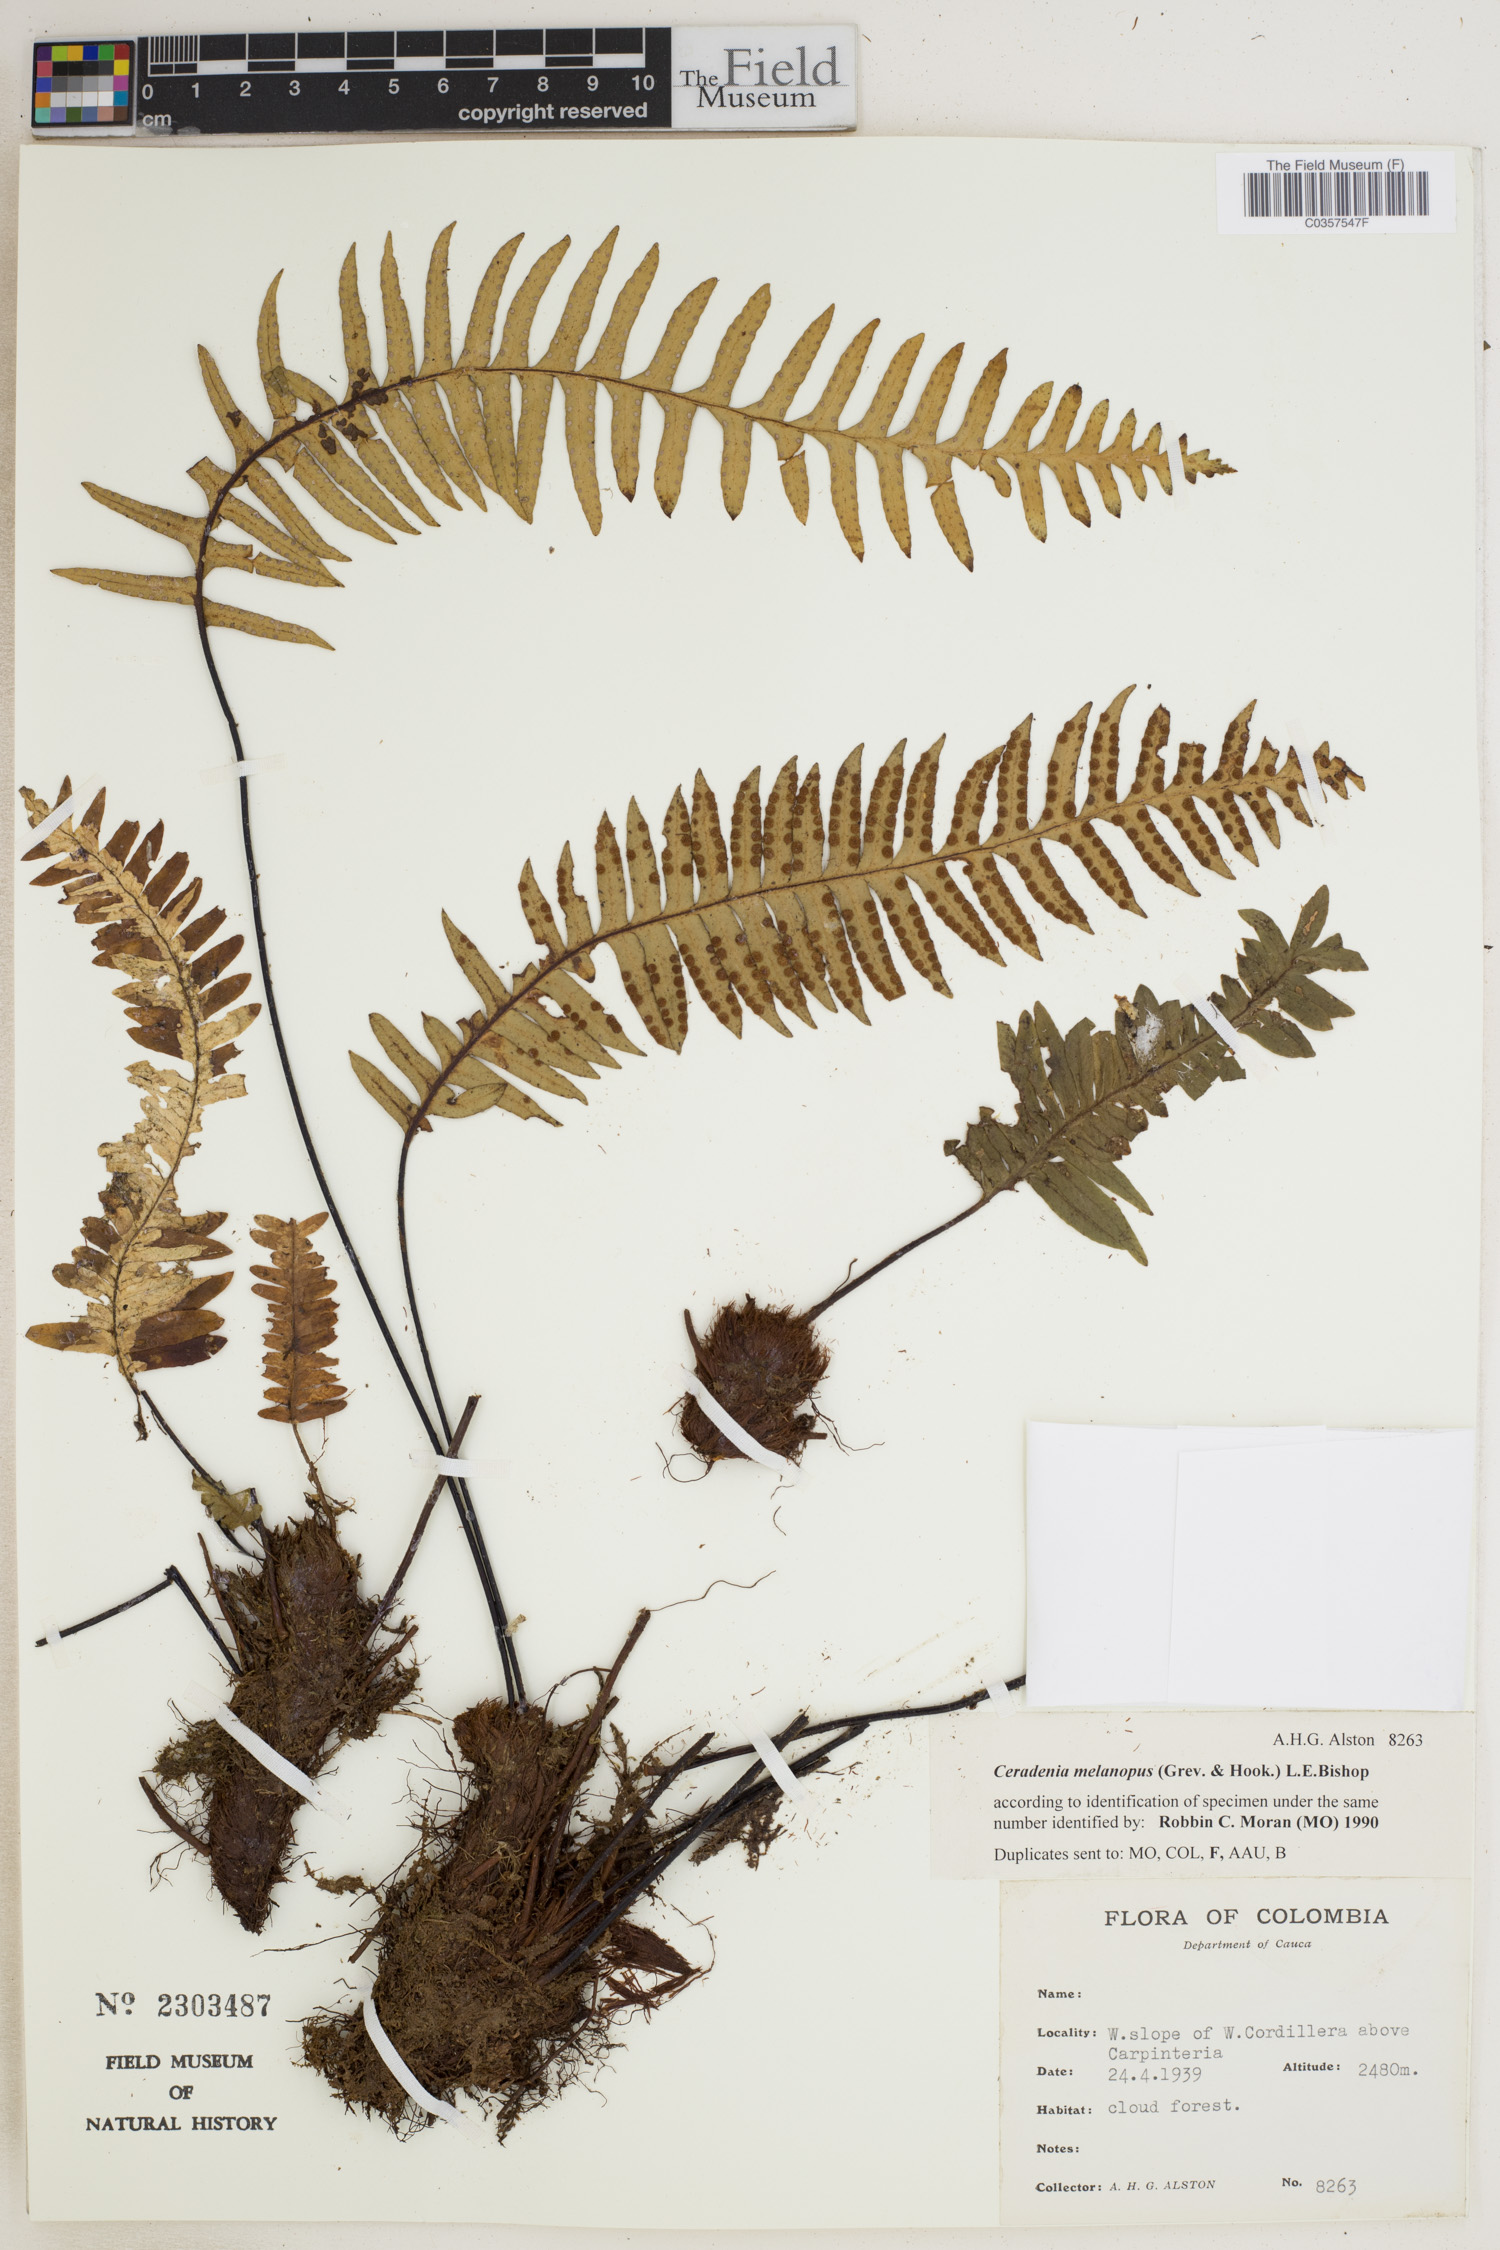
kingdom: Plantae
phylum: Tracheophyta
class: Polypodiopsida
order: Polypodiales
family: Polypodiaceae
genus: Ceradenia
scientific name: Ceradenia melanopus
